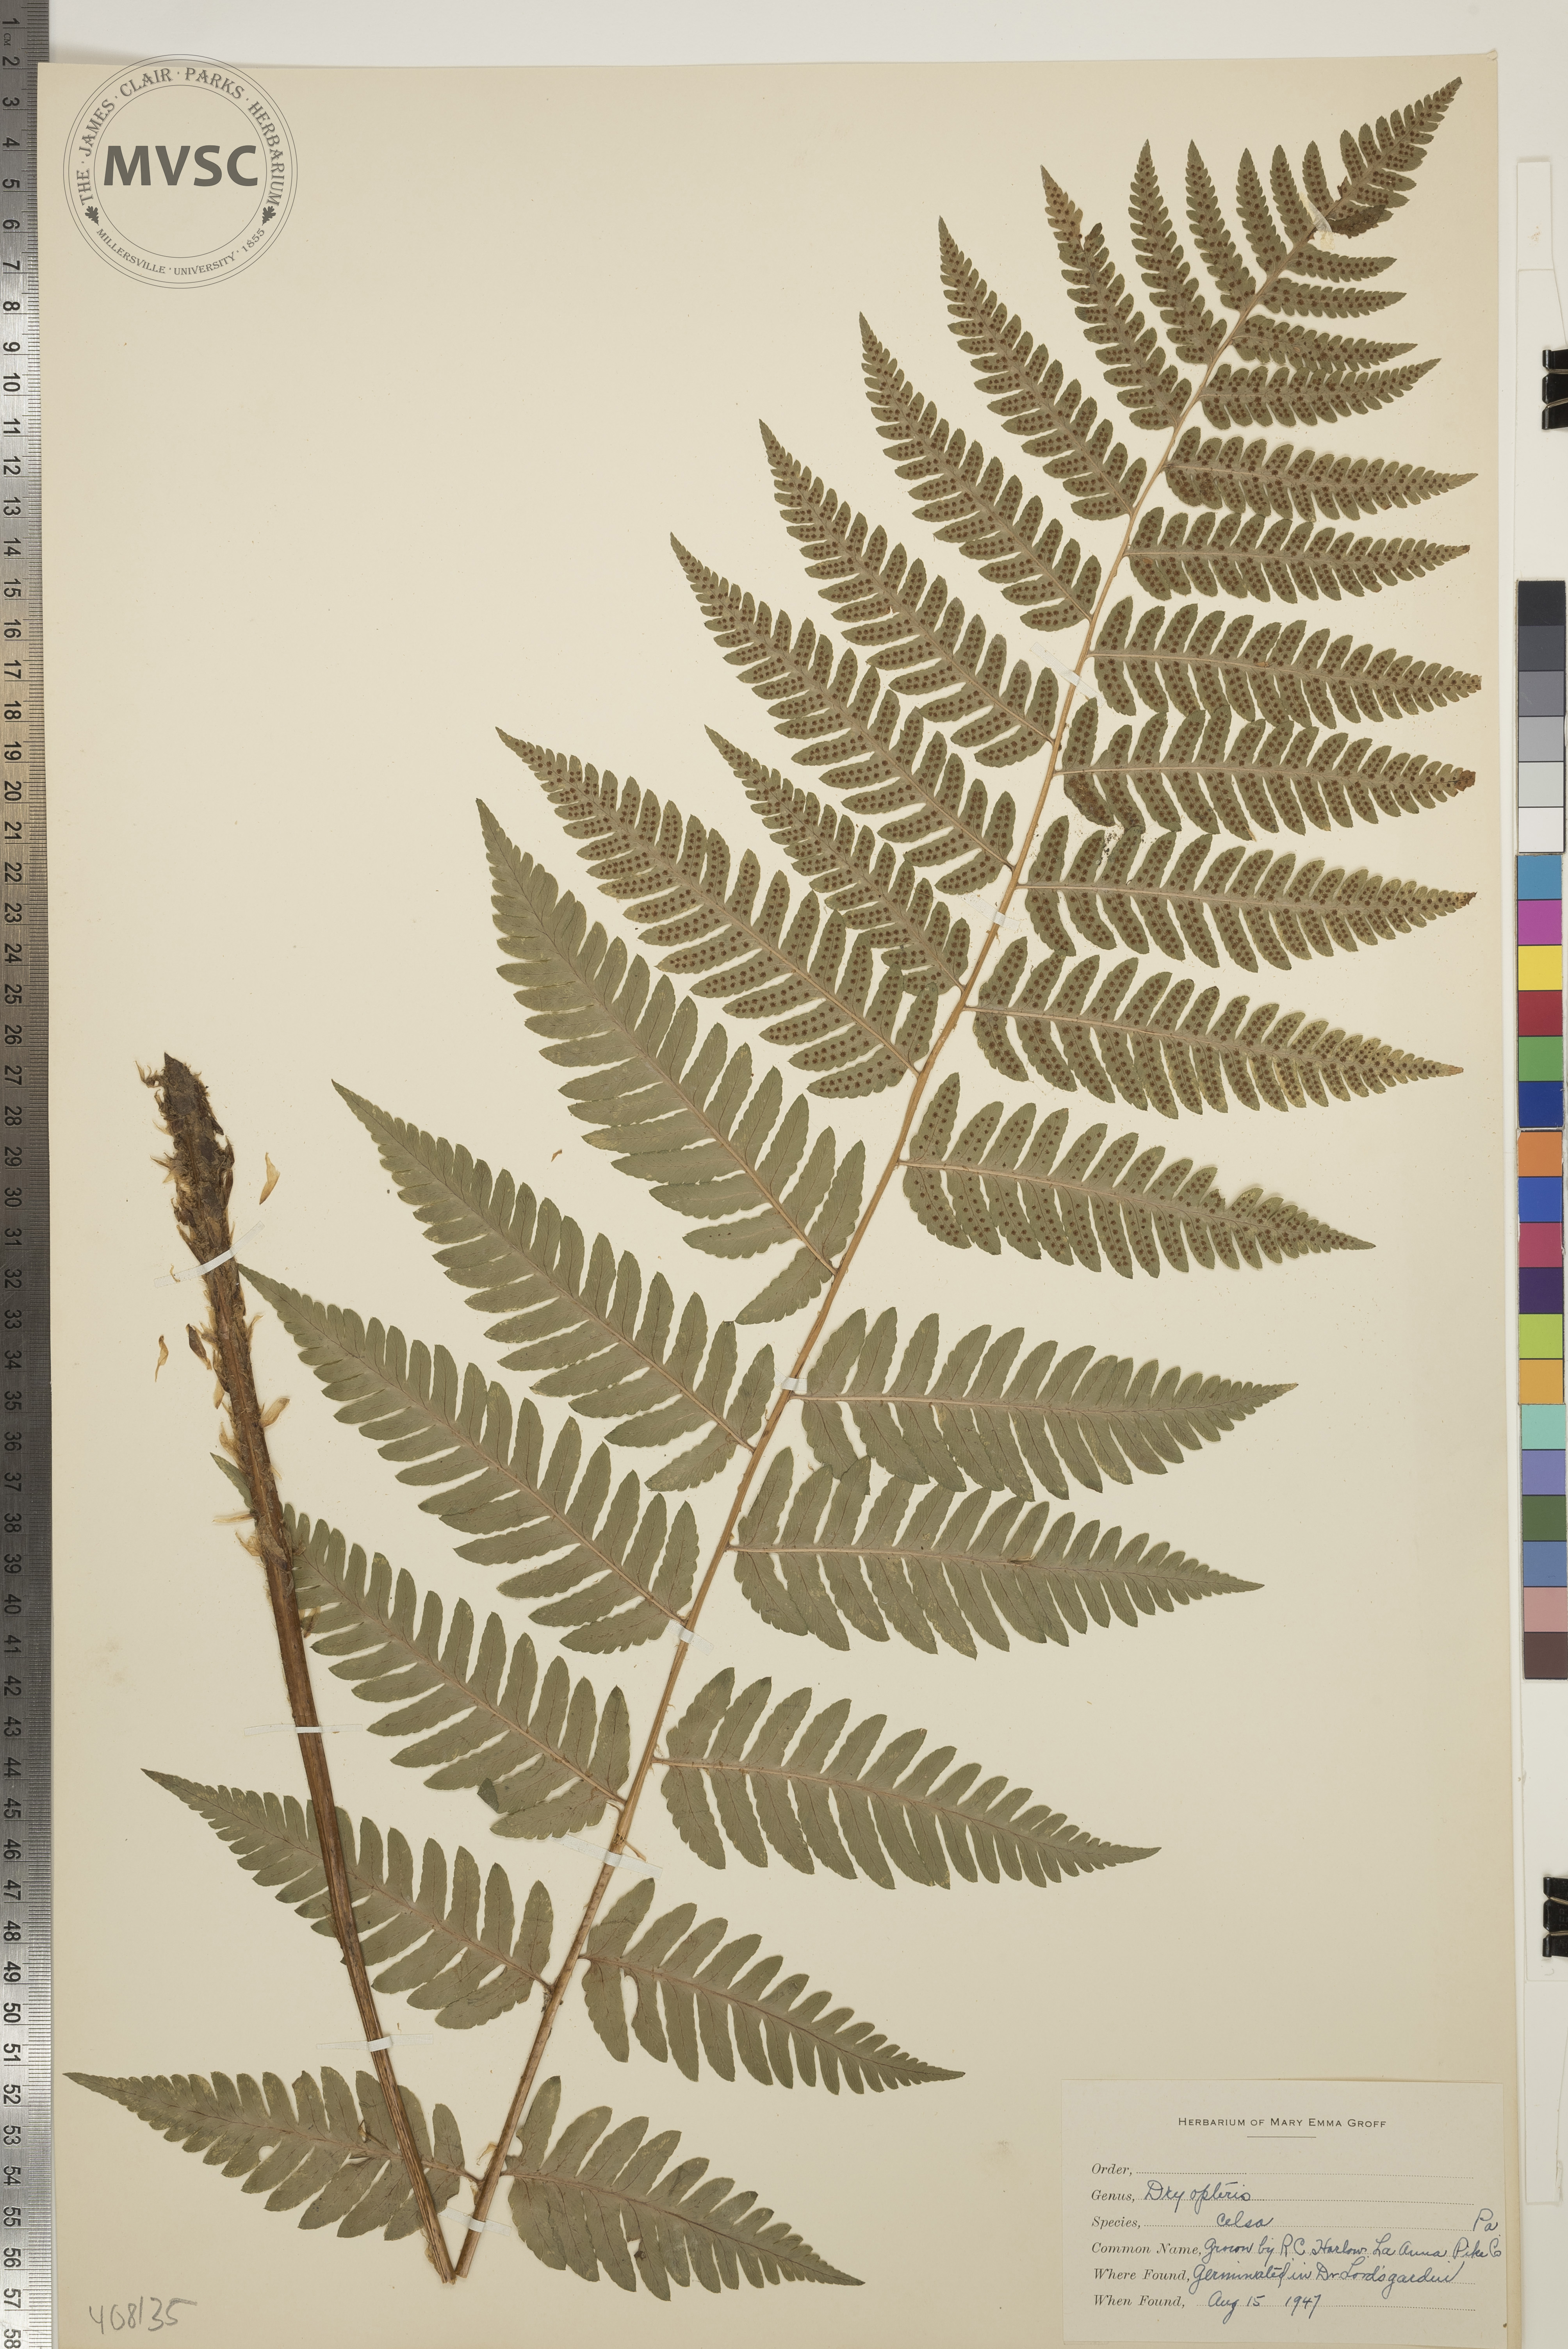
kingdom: Plantae
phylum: Tracheophyta
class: Polypodiopsida
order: Polypodiales
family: Dryopteridaceae
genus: Dryopteris
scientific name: Dryopteris celsa
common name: Log Fern
